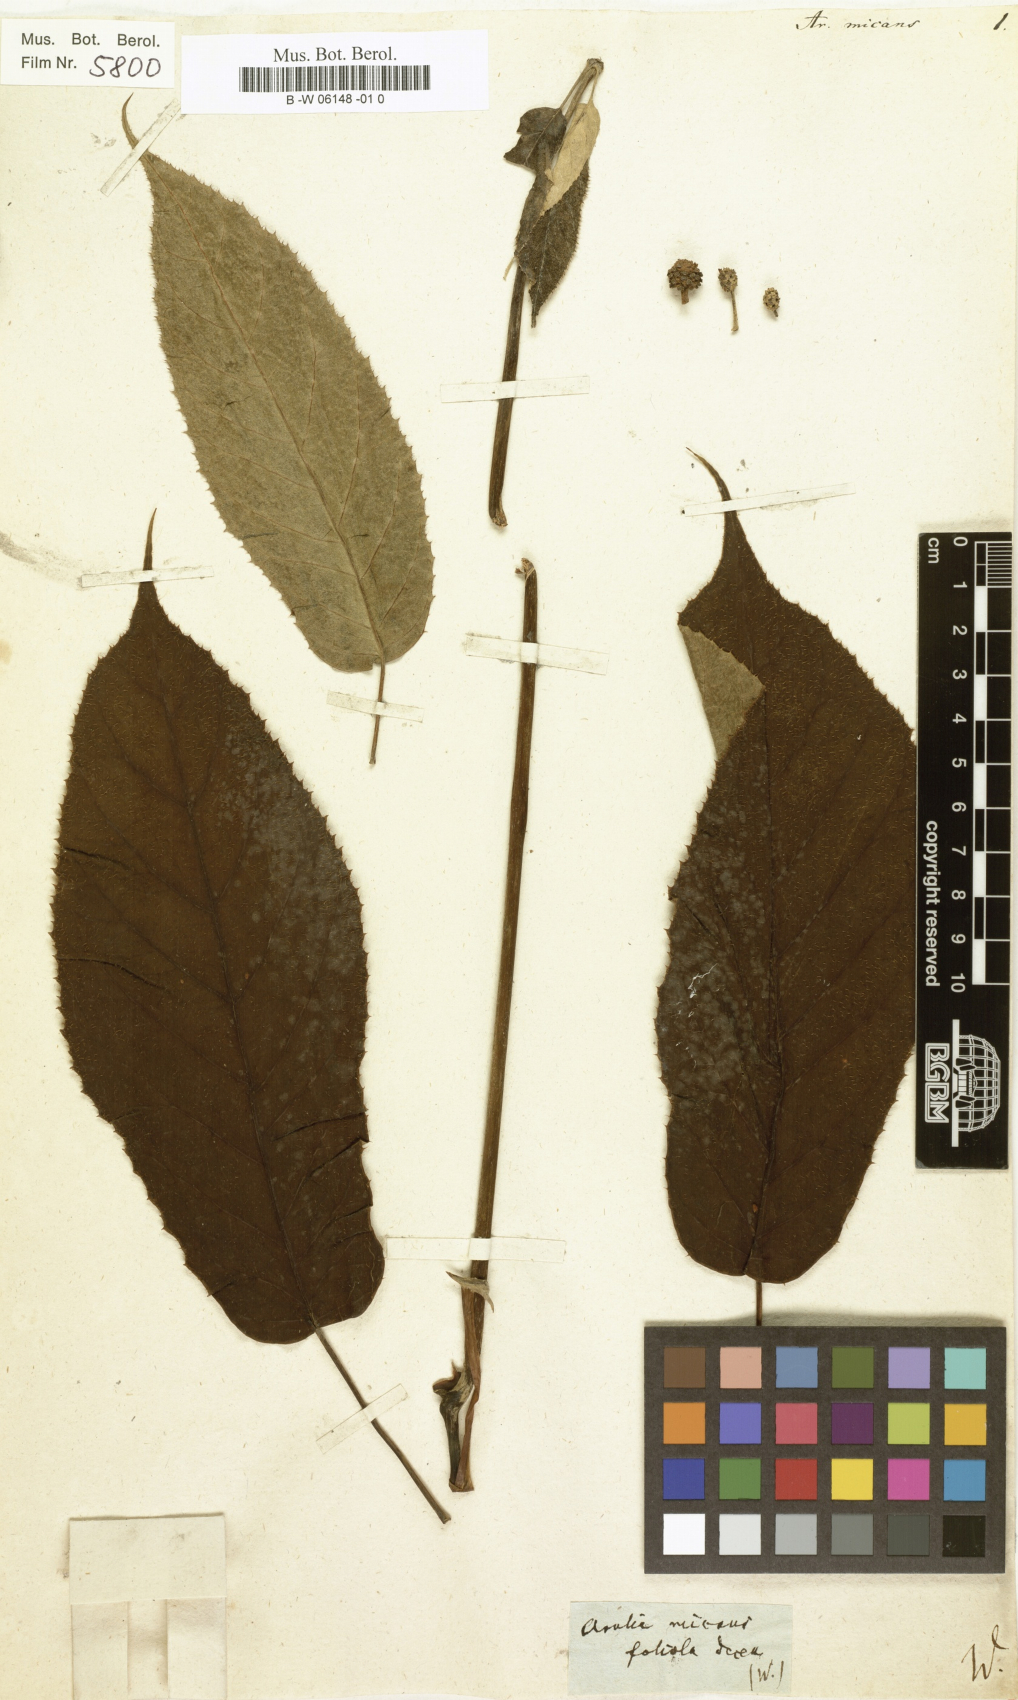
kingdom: Plantae
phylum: Tracheophyta
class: Magnoliopsida
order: Apiales
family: Araliaceae
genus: Didymopanax
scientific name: Didymopanax morototoni
